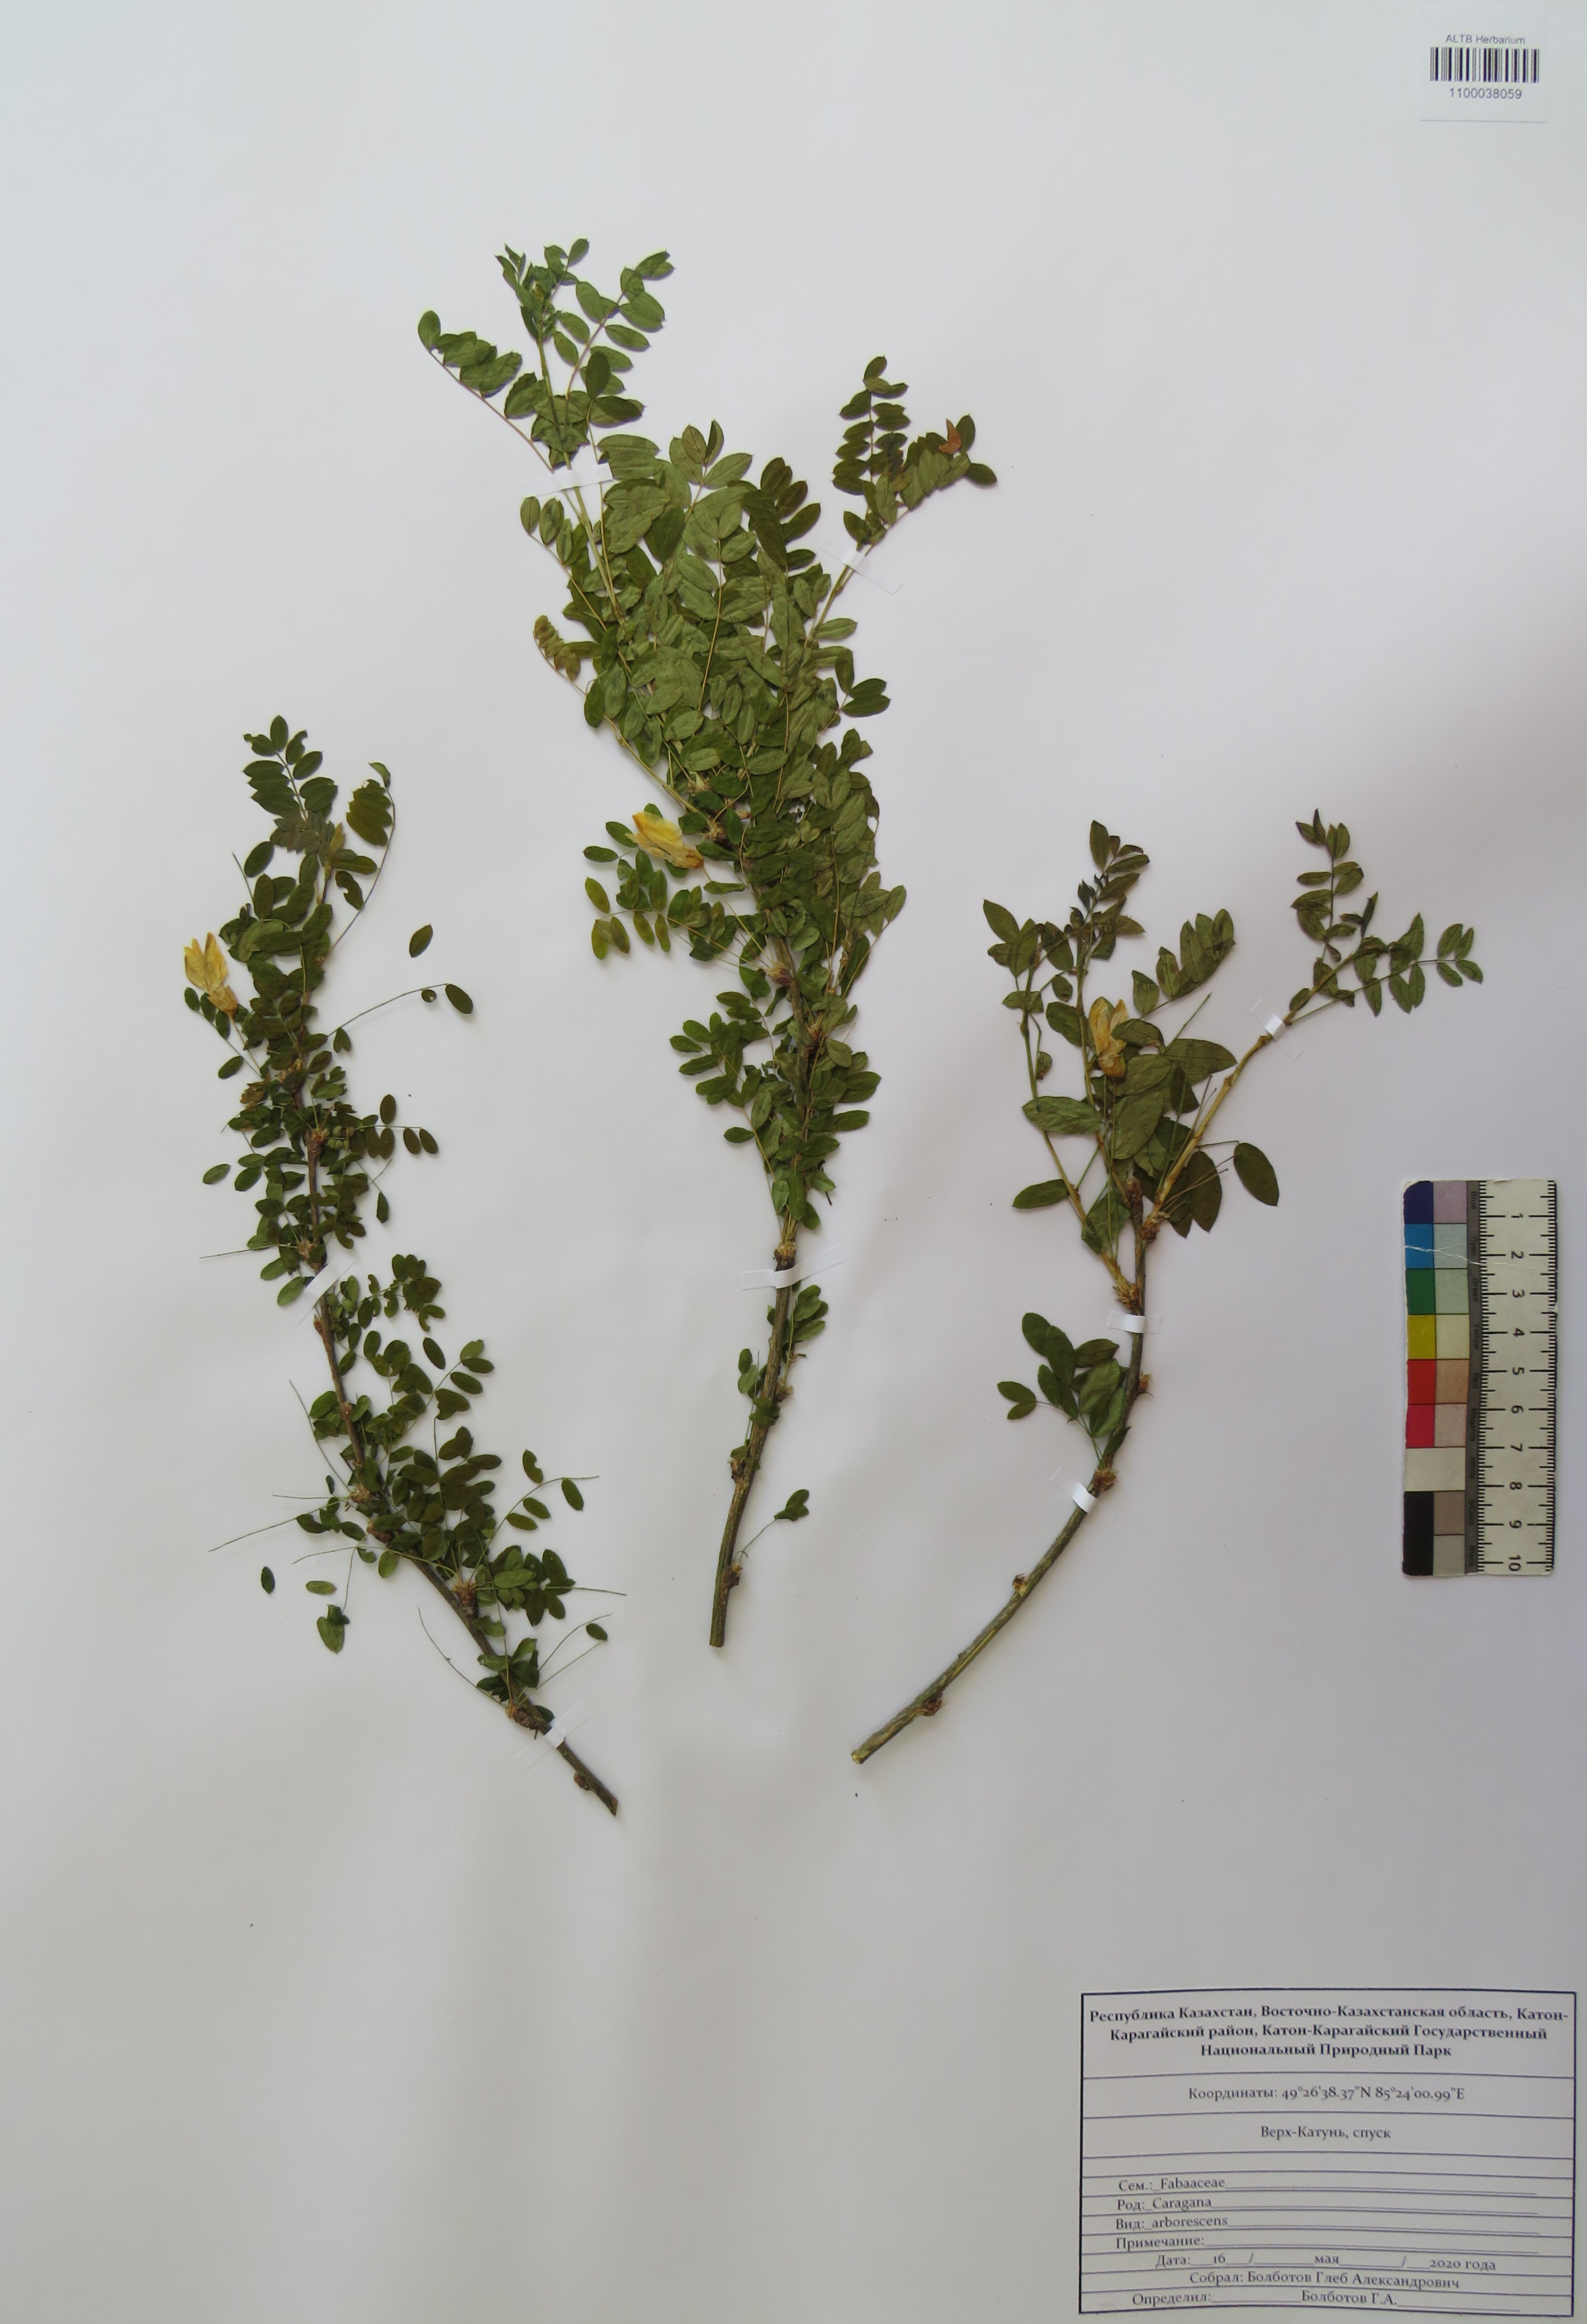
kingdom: Plantae
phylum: Tracheophyta
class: Magnoliopsida
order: Fabales
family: Fabaceae
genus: Caragana
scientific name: Caragana arborescens
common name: Siberian peashrub
